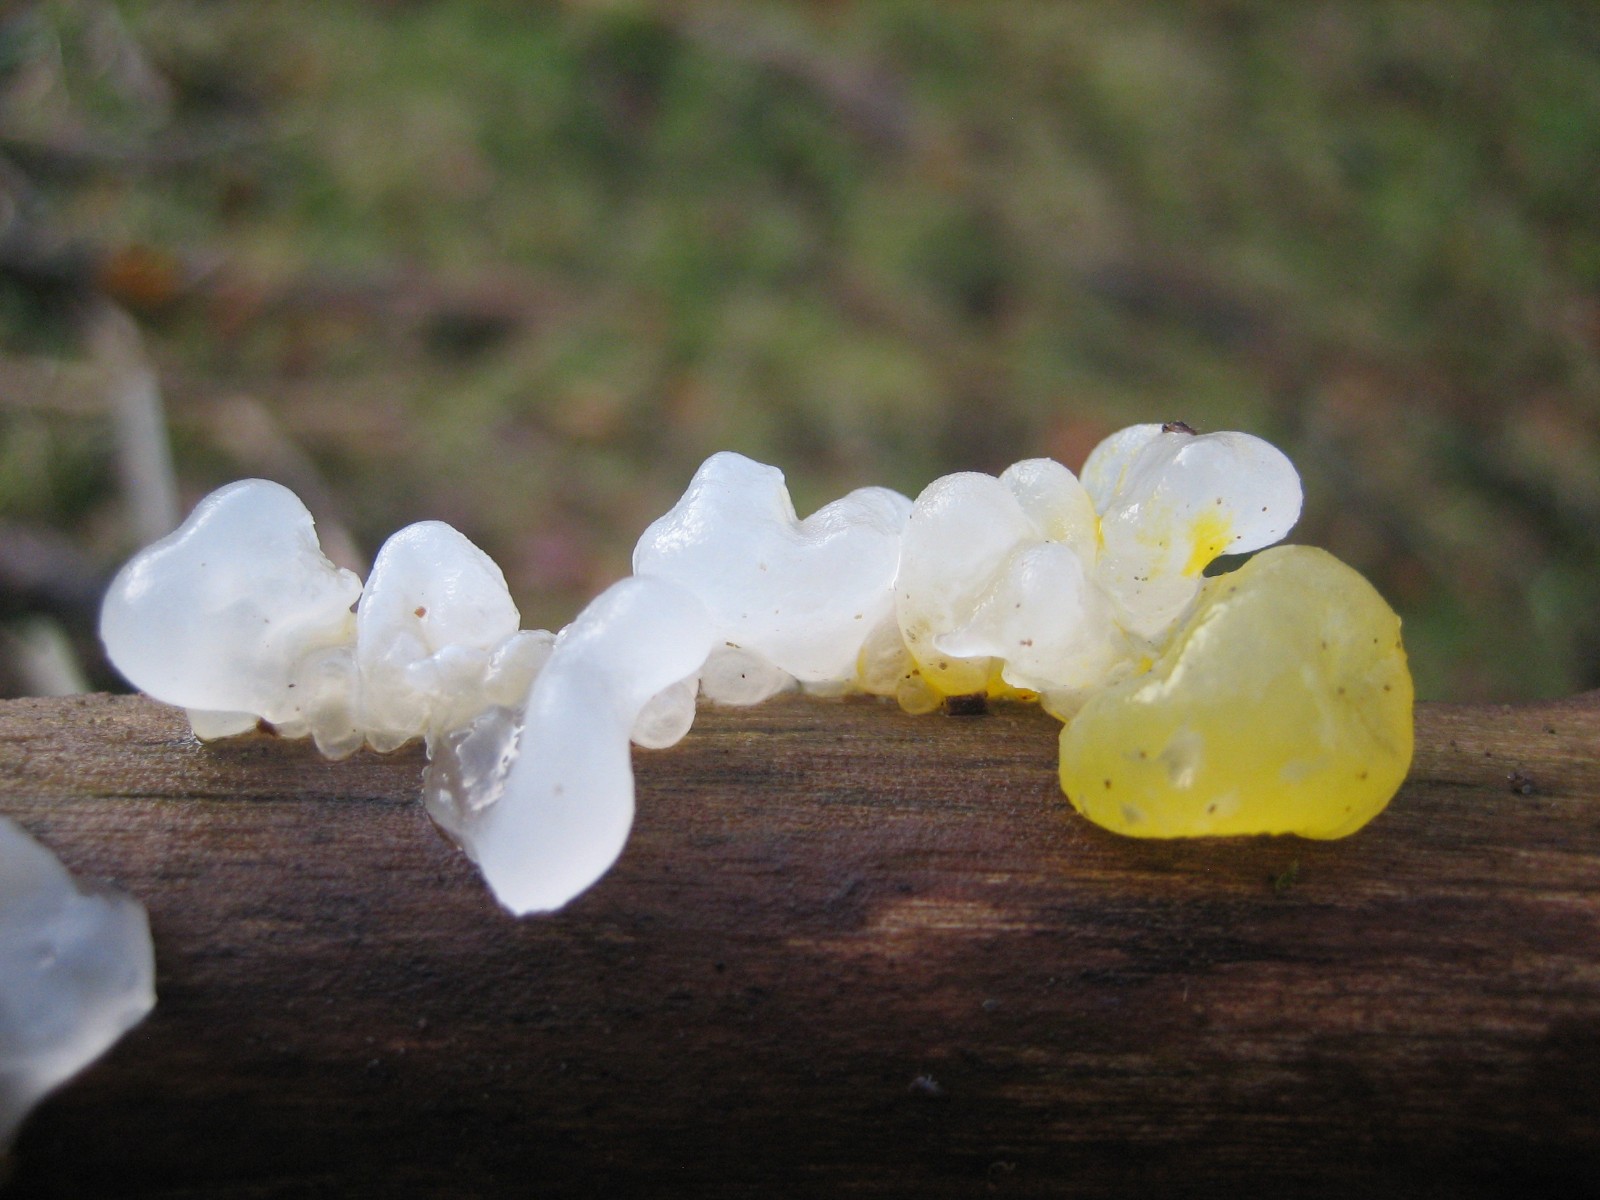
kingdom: Fungi
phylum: Basidiomycota
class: Tremellomycetes
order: Tremellales
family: Tremellaceae
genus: Tremella
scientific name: Tremella mesenterica
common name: gul bævresvamp
